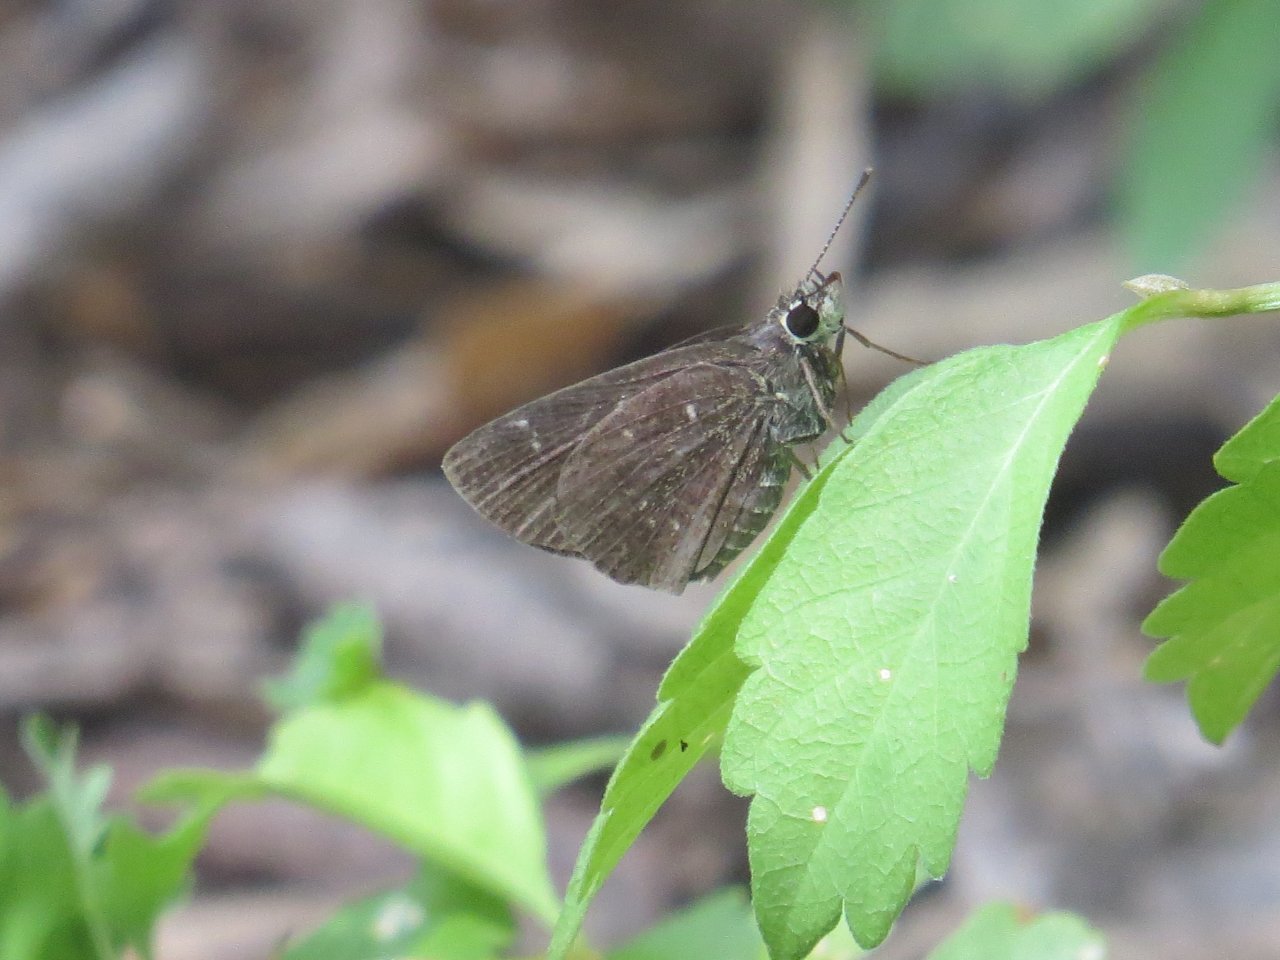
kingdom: Animalia
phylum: Arthropoda
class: Insecta
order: Lepidoptera
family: Hesperiidae
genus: Mastor
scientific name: Mastor celia
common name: Celia's Roadside-Skipper
